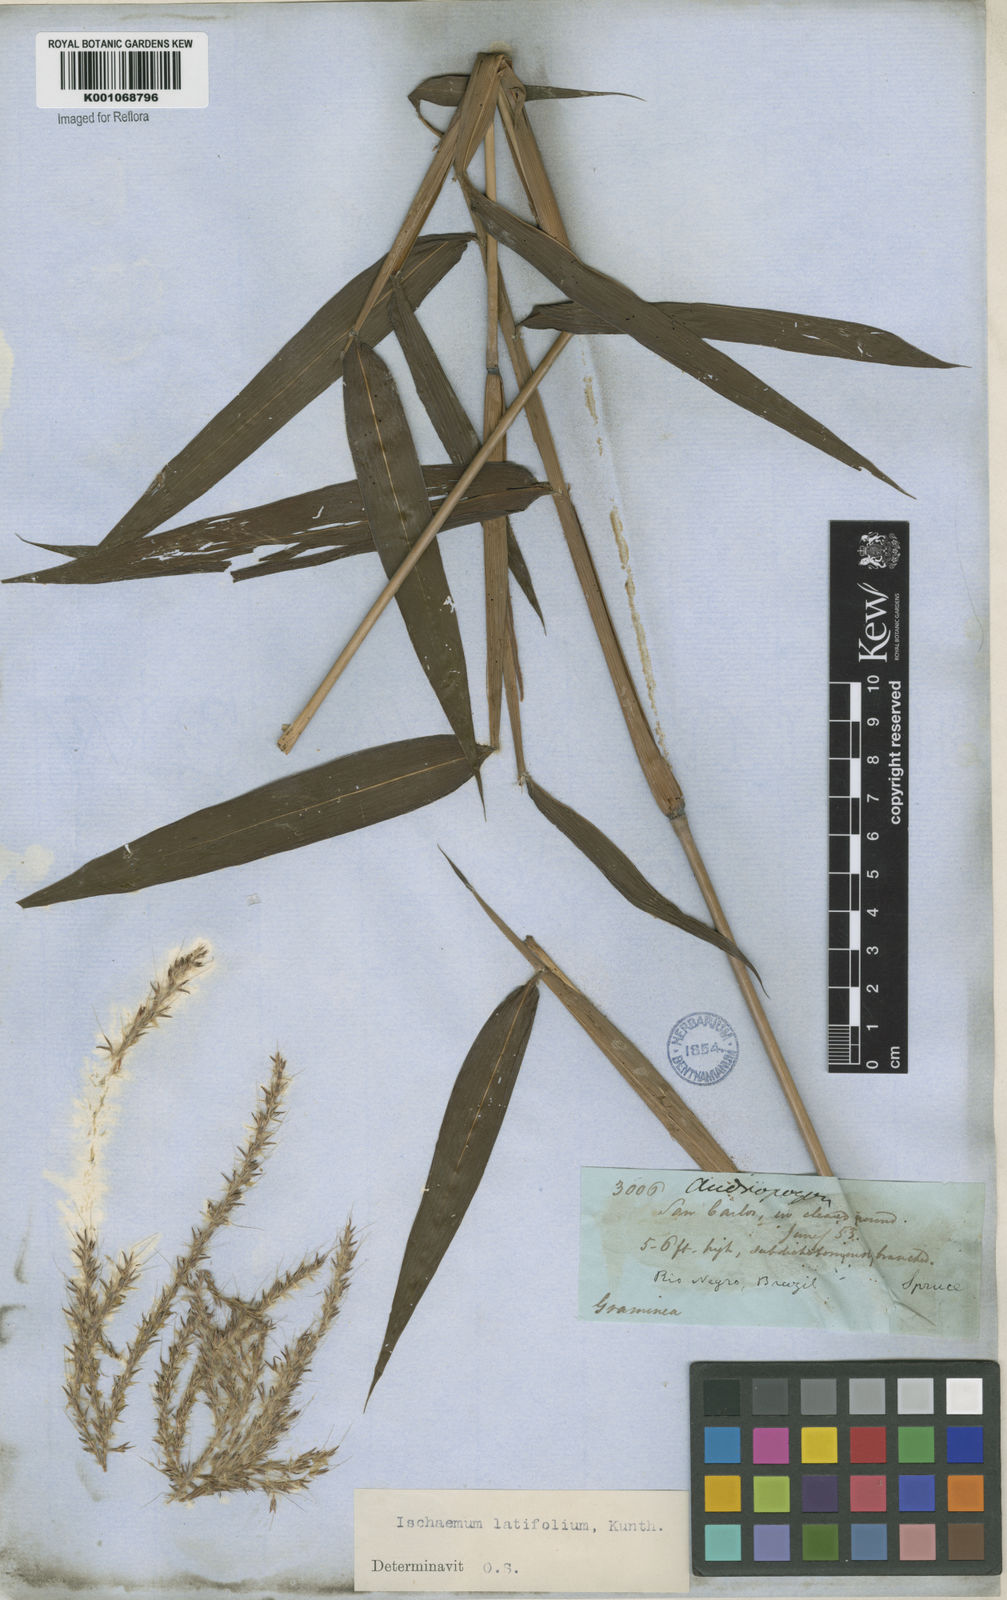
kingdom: Plantae
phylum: Tracheophyta
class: Liliopsida
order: Poales
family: Poaceae
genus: Ischaemum
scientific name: Ischaemum latifolium
